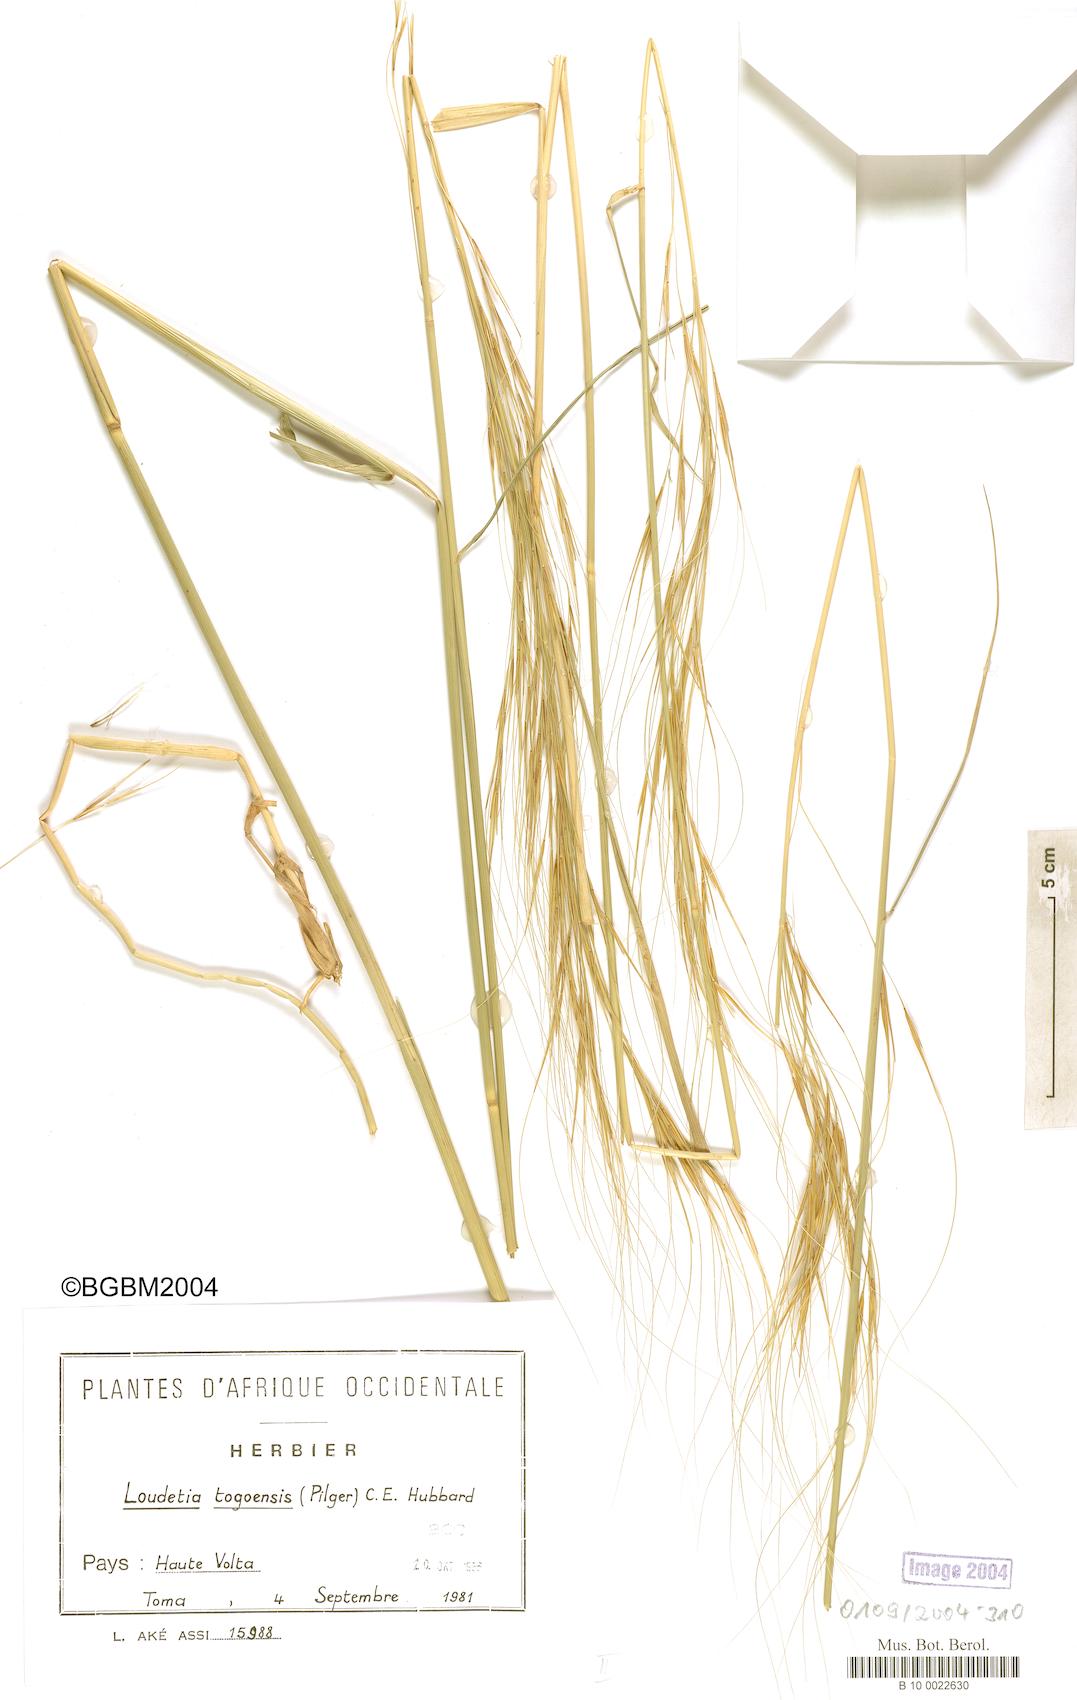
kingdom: Plantae
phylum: Tracheophyta
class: Liliopsida
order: Poales
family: Poaceae
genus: Loudetia
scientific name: Loudetia togoensis
